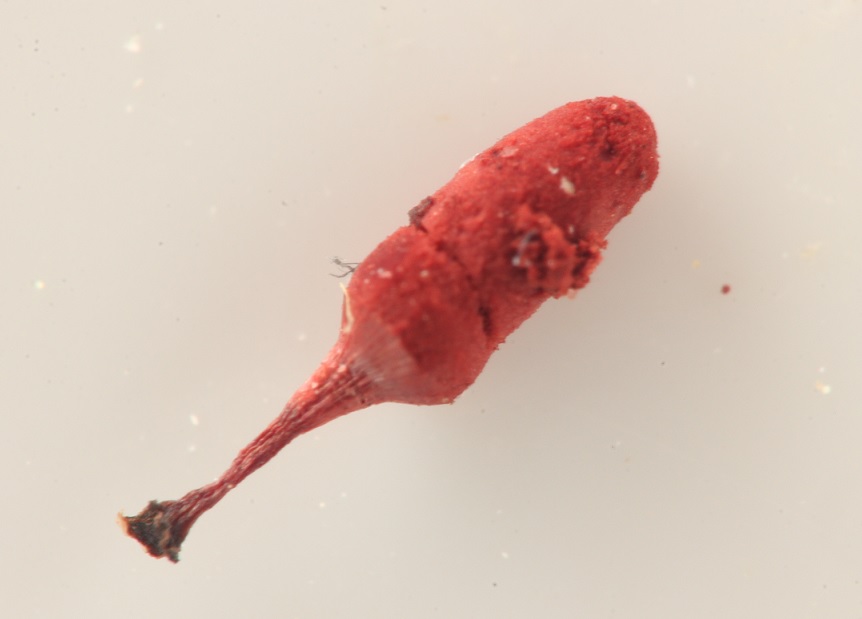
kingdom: Protozoa
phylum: Mycetozoa
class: Myxomycetes
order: Trichiales
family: Arcyriaceae
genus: Arcyria
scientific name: Arcyria denudata
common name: karminrød skålsvøb
